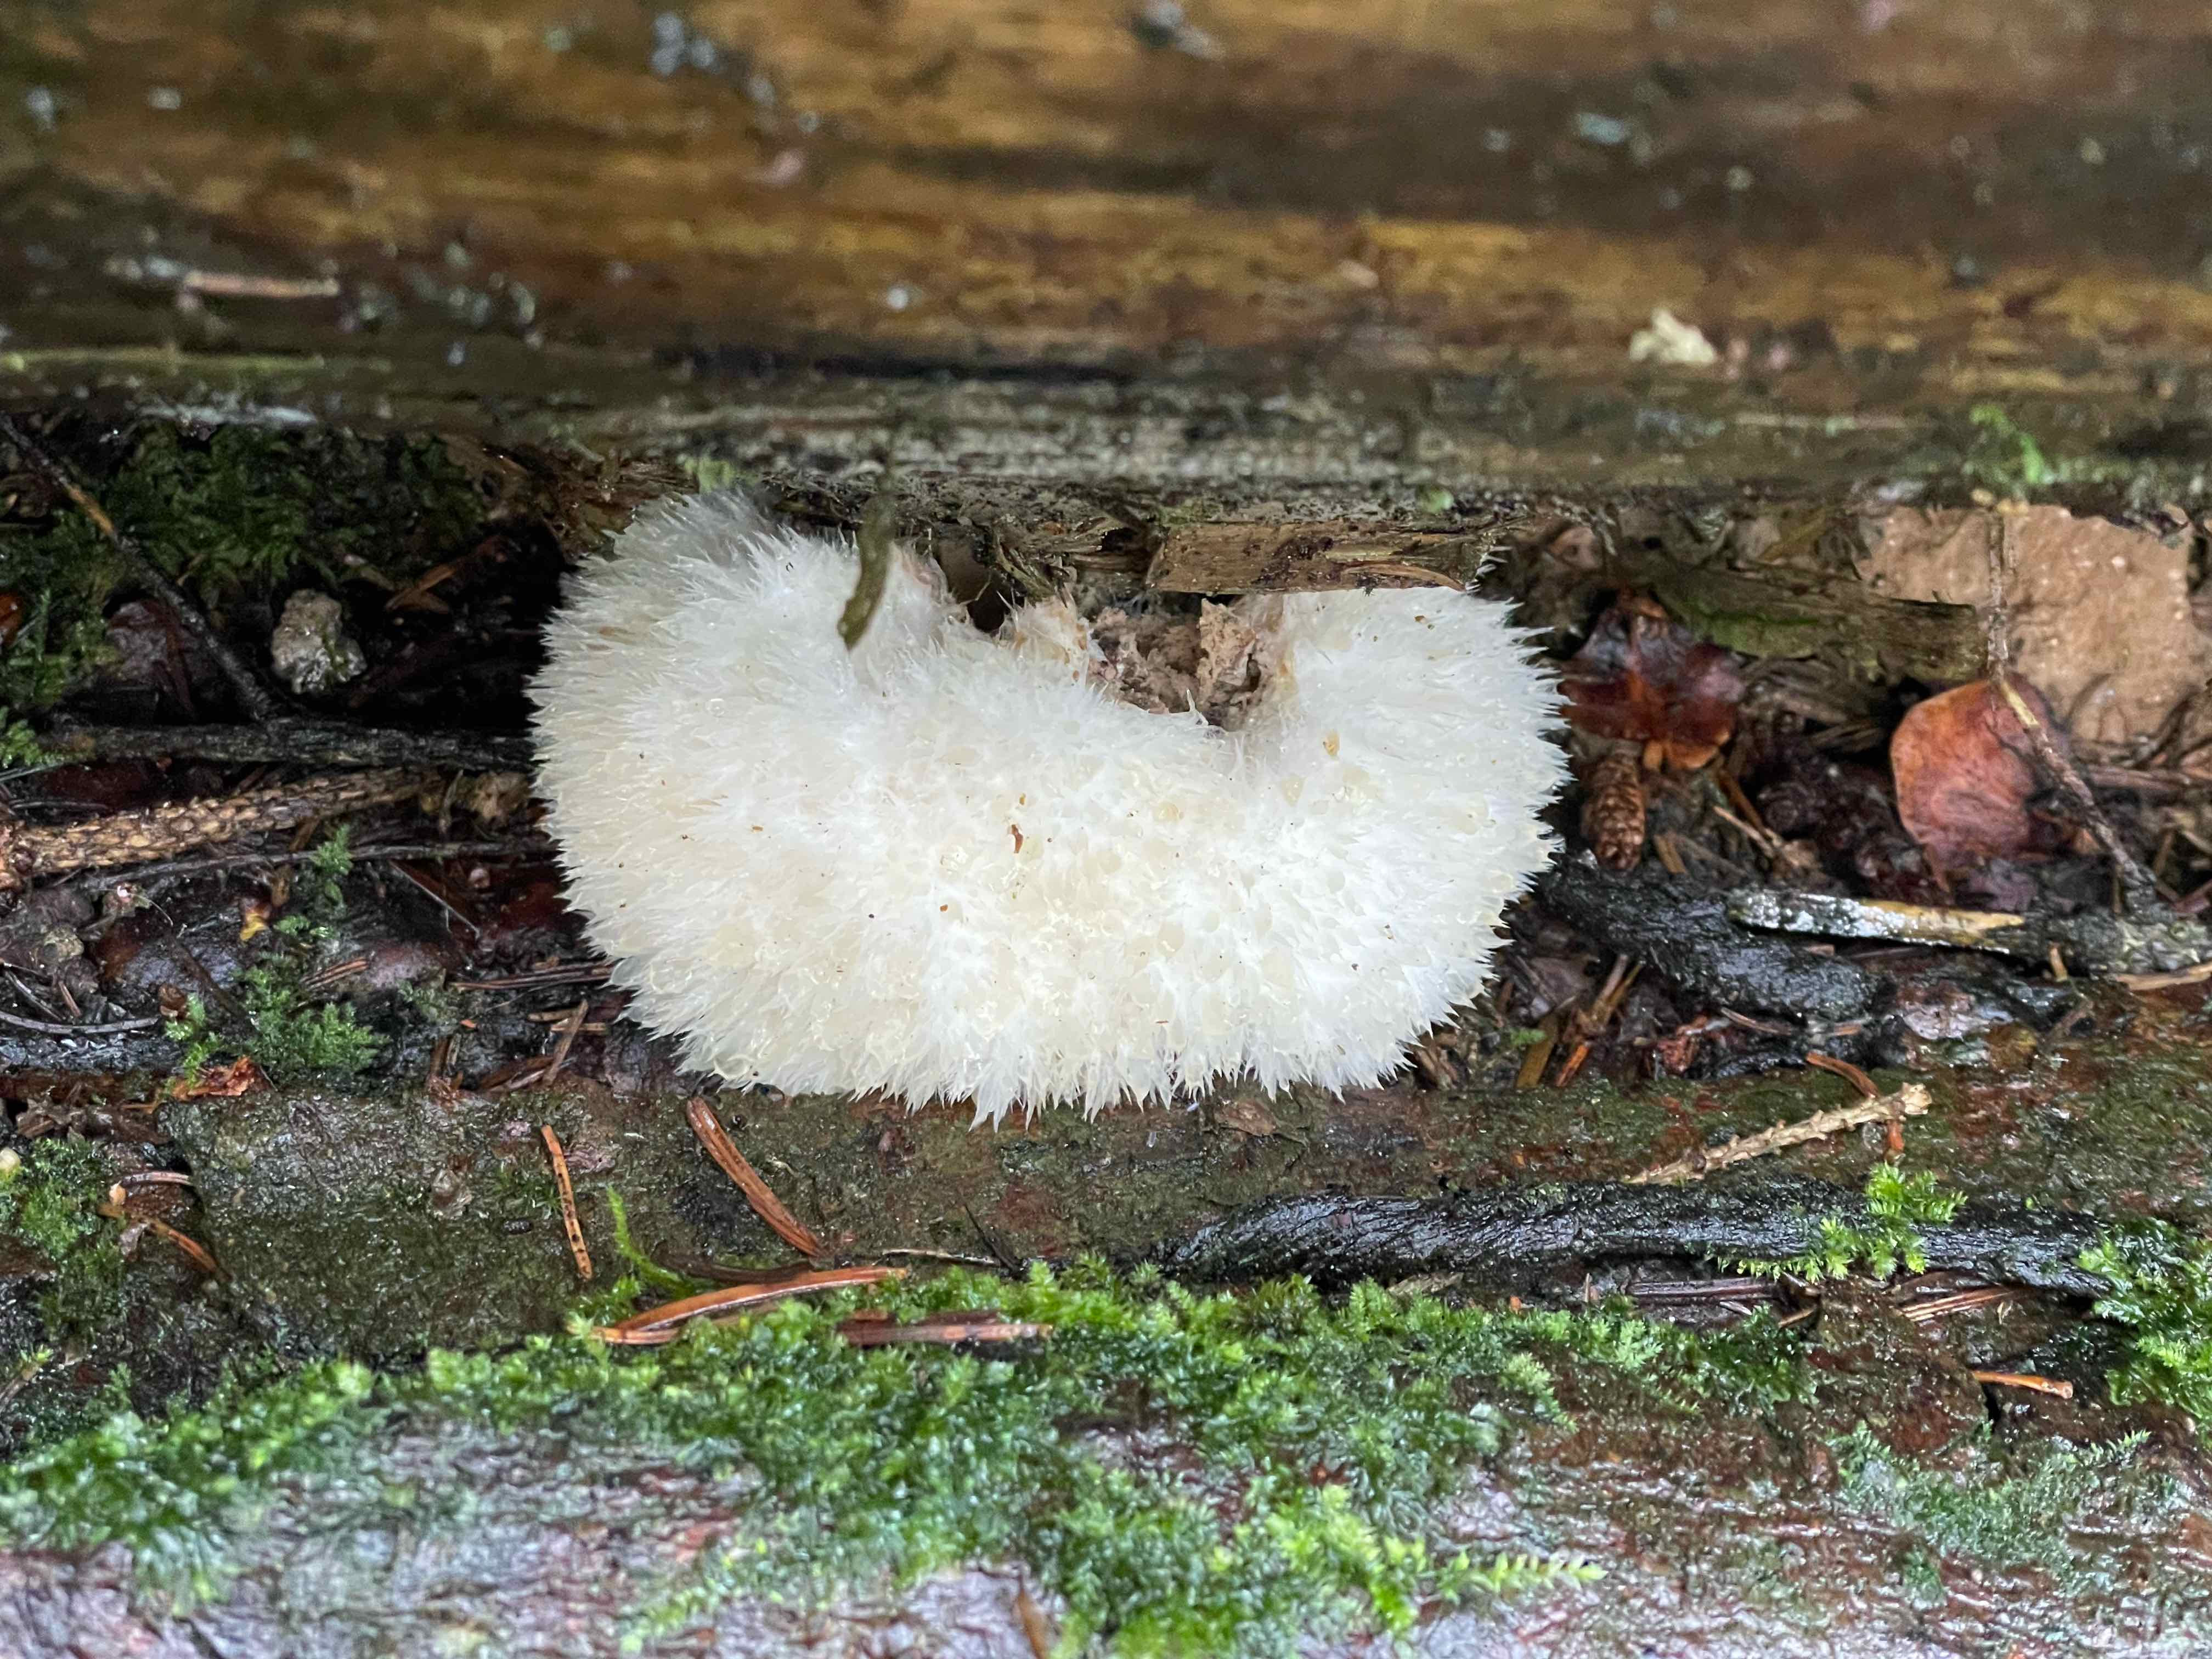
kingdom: Fungi
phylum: Basidiomycota
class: Agaricomycetes
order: Polyporales
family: Dacryobolaceae
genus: Postia
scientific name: Postia ptychogaster
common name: støvende kødporesvamp
